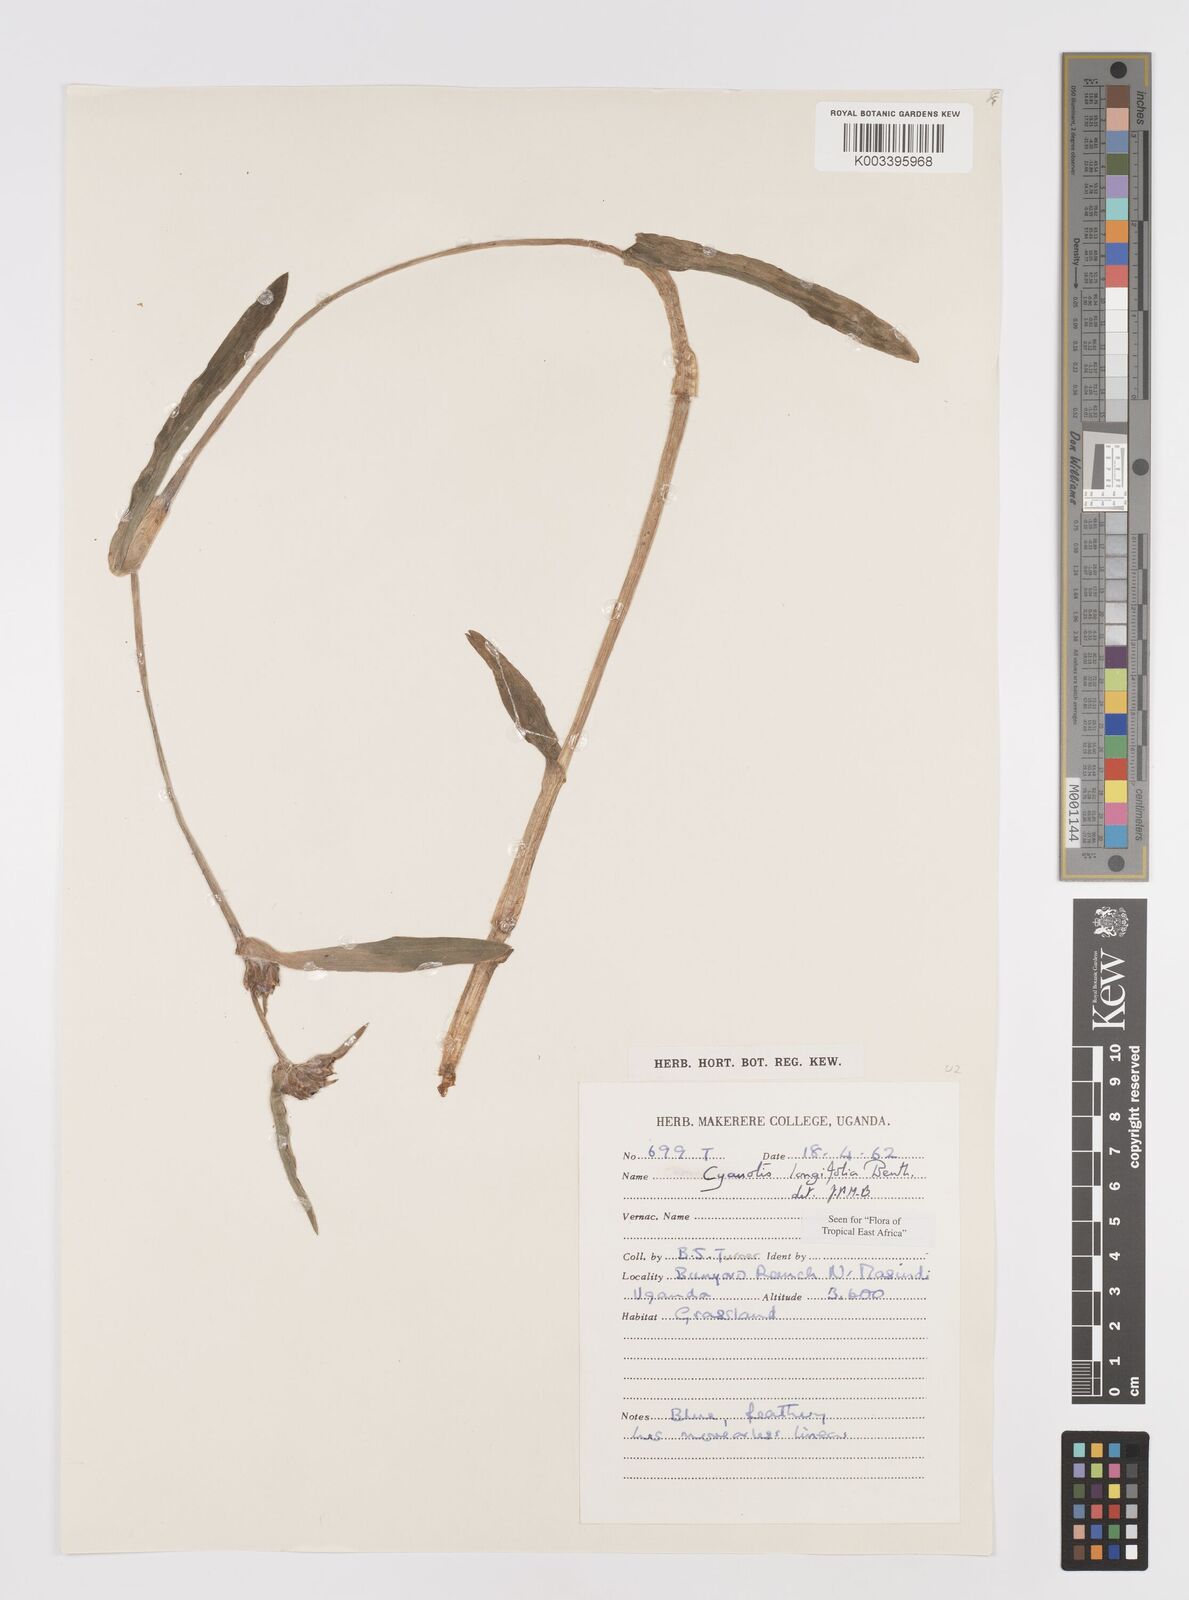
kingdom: Plantae
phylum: Tracheophyta
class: Liliopsida
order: Commelinales
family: Commelinaceae
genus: Cyanotis
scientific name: Cyanotis longifolia
